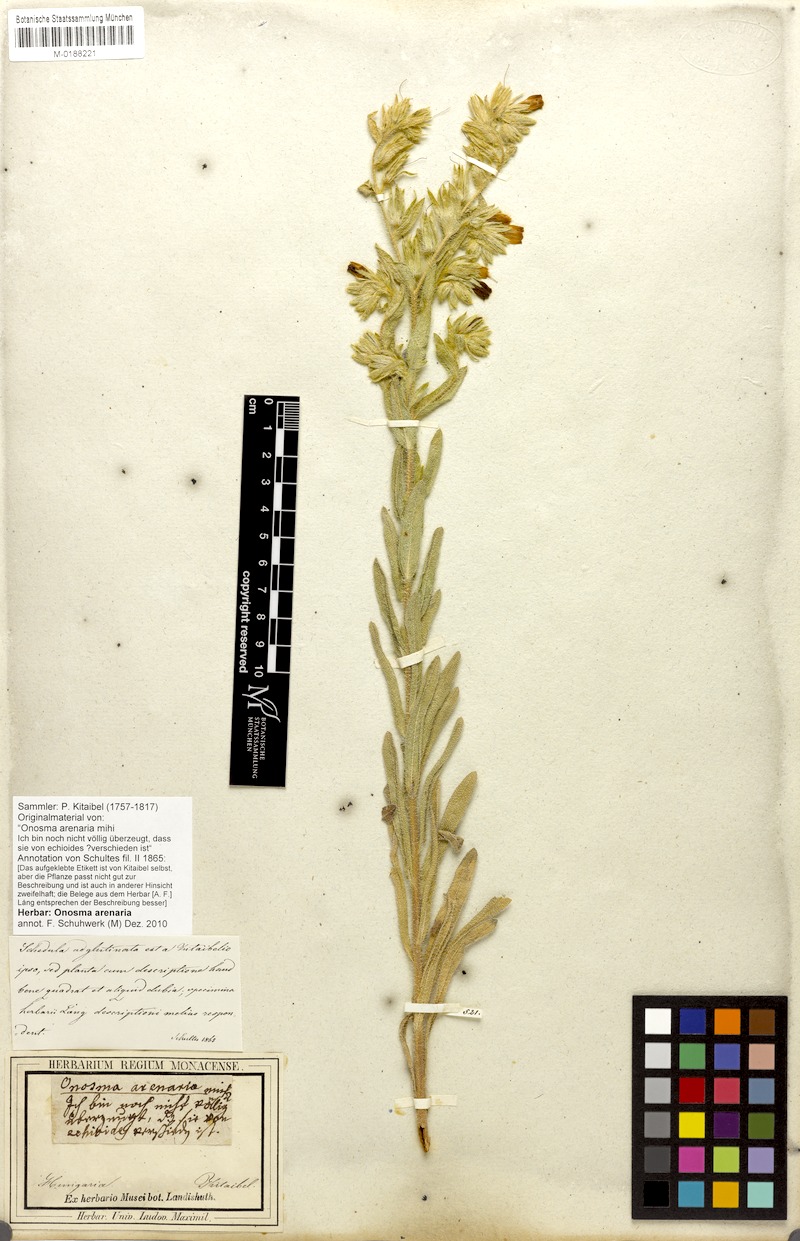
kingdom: Plantae
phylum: Tracheophyta
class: Magnoliopsida
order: Boraginales
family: Boraginaceae
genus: Onosma
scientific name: Onosma arenaria
